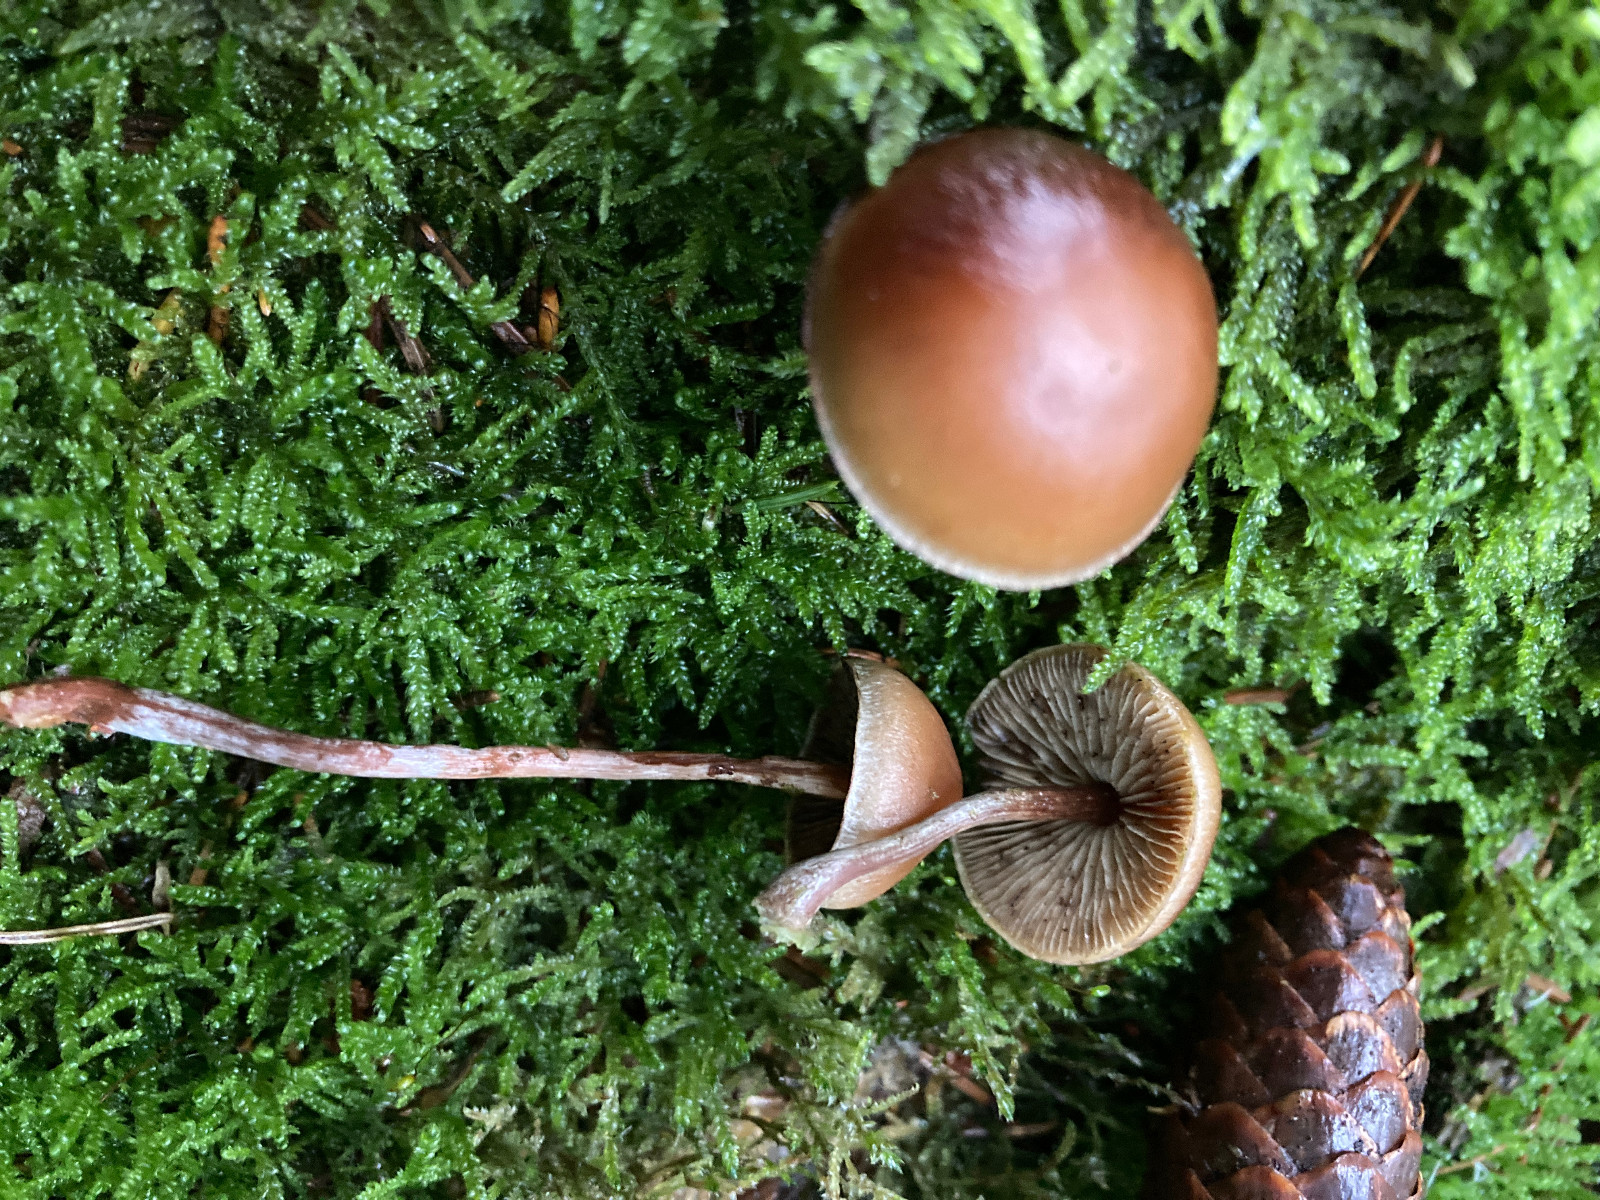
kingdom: Fungi
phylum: Basidiomycota
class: Agaricomycetes
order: Agaricales
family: Strophariaceae
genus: Hypholoma
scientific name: Hypholoma marginatum
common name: enlig svovlhat
